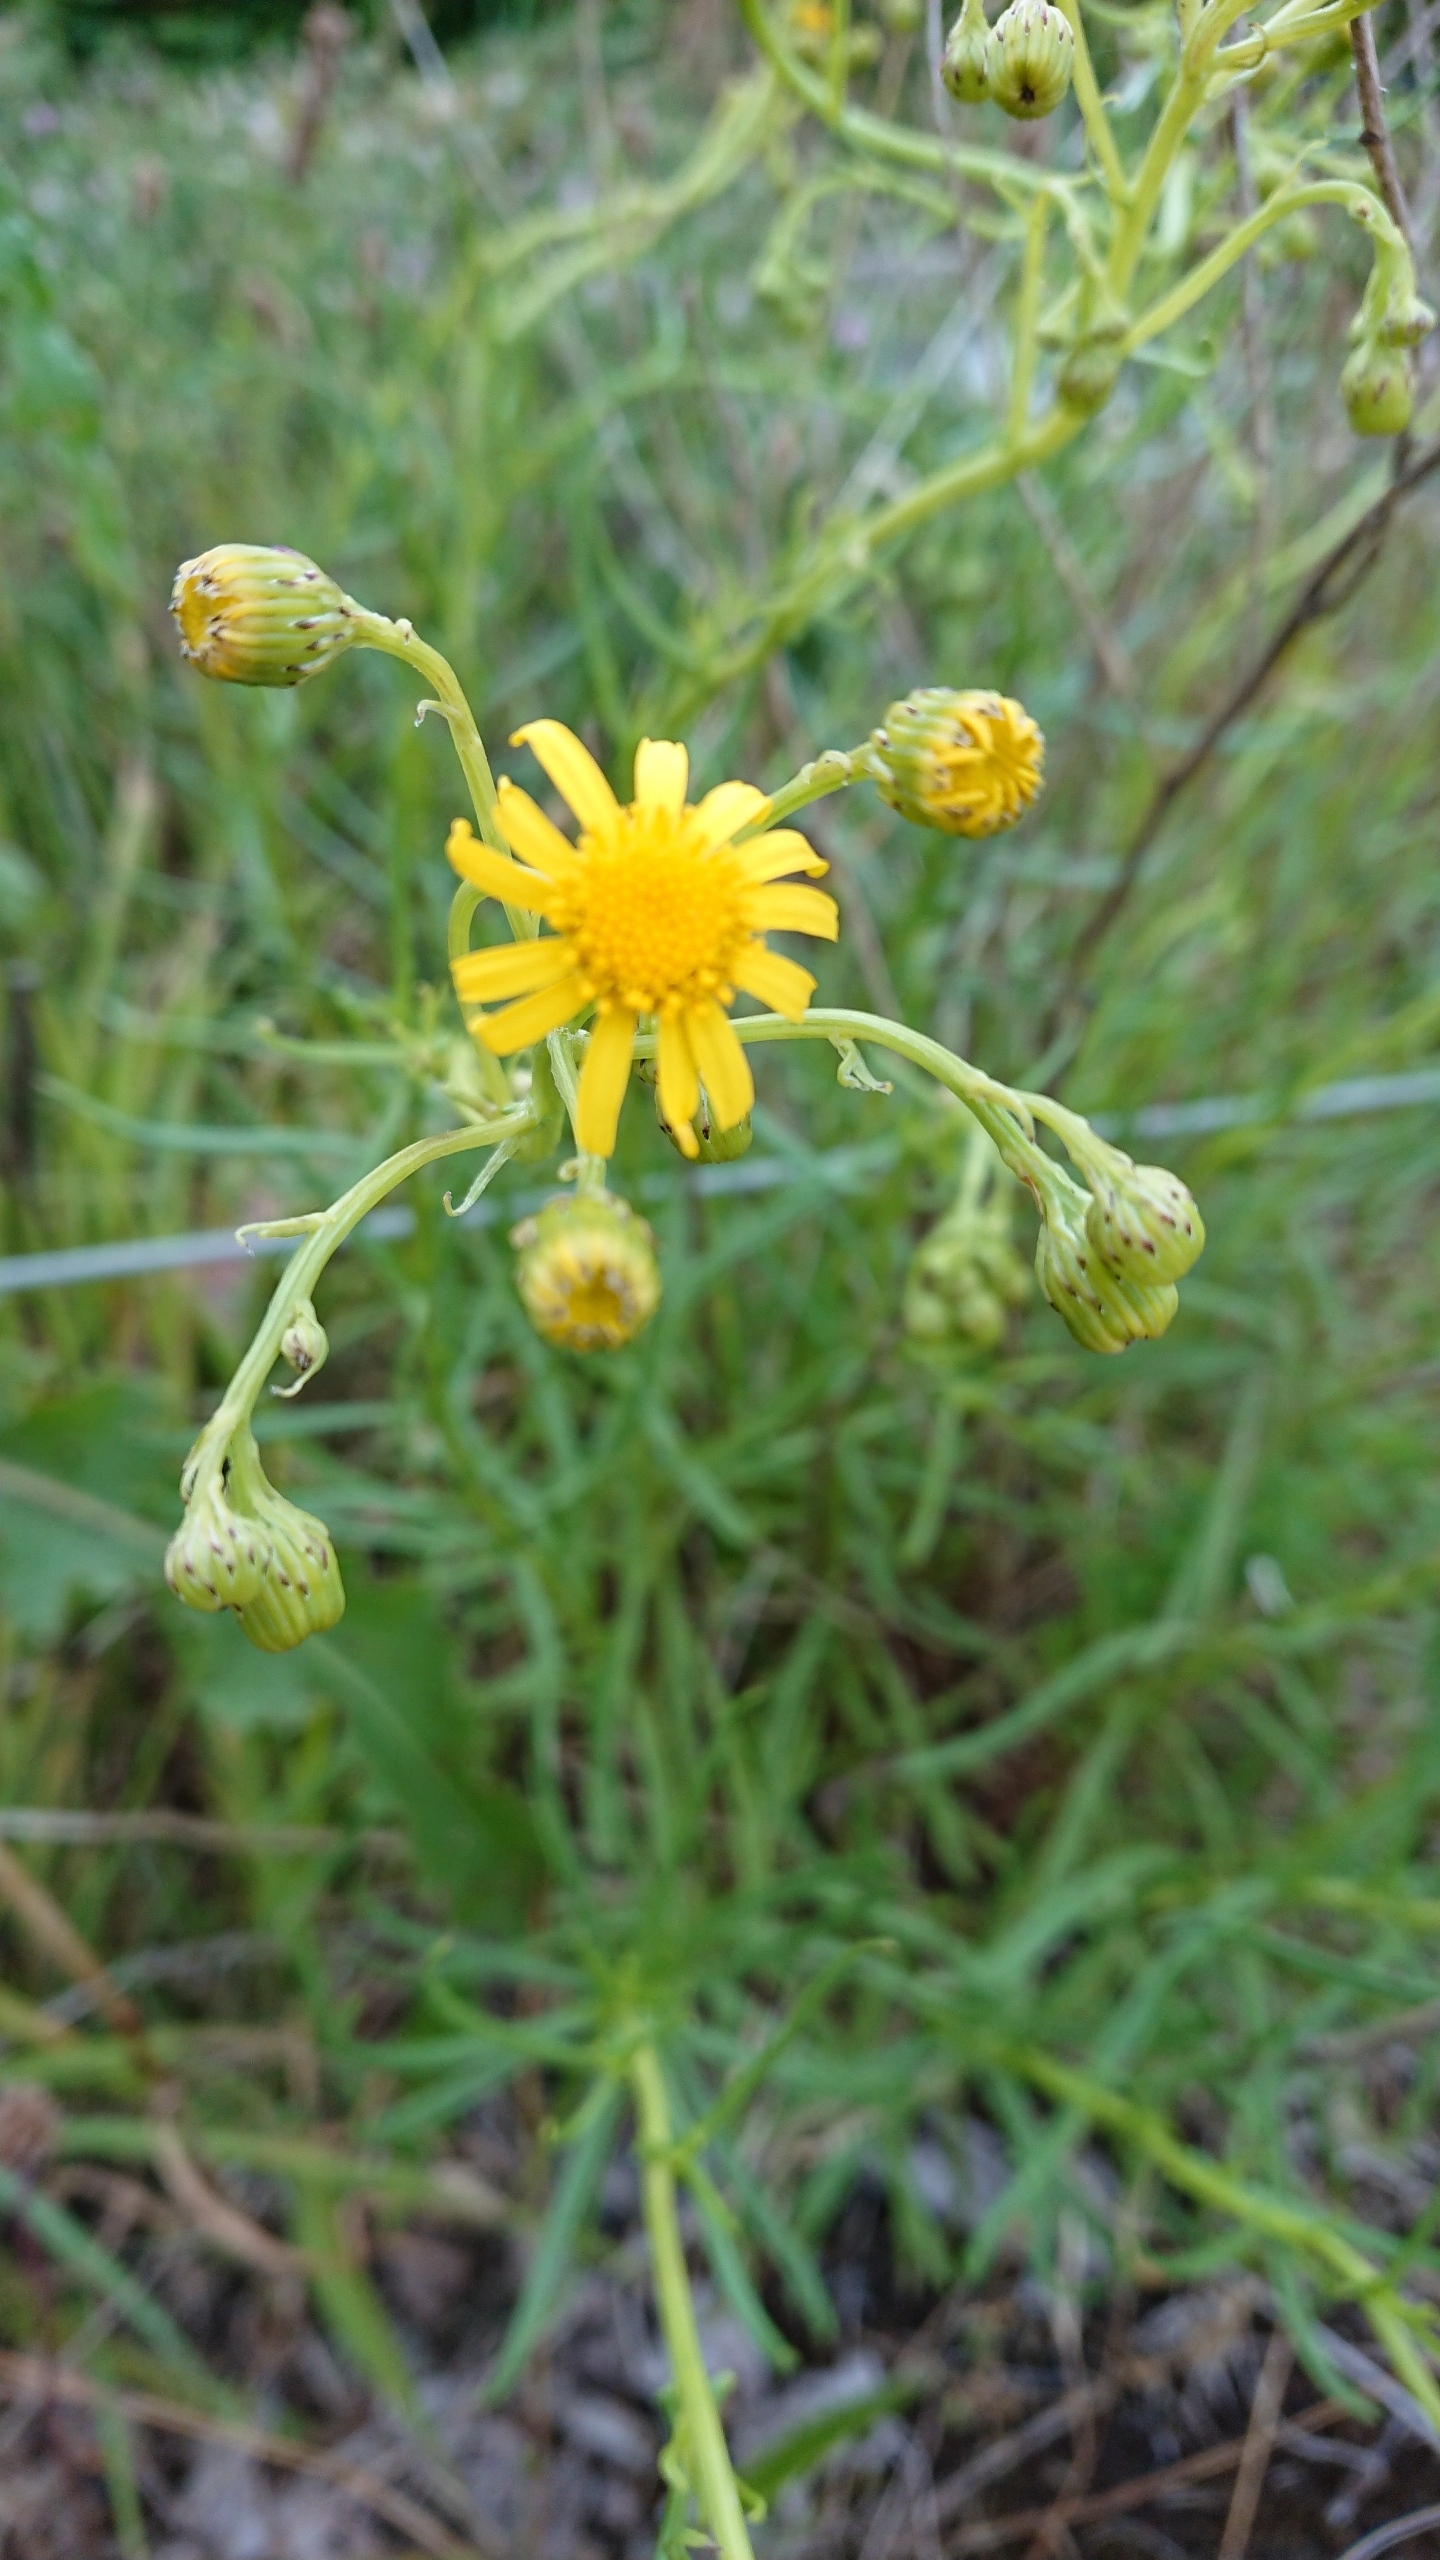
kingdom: Plantae
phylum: Tracheophyta
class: Magnoliopsida
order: Asterales
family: Asteraceae
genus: Senecio
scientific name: Senecio inaequidens
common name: Smalbladet brandbæger
